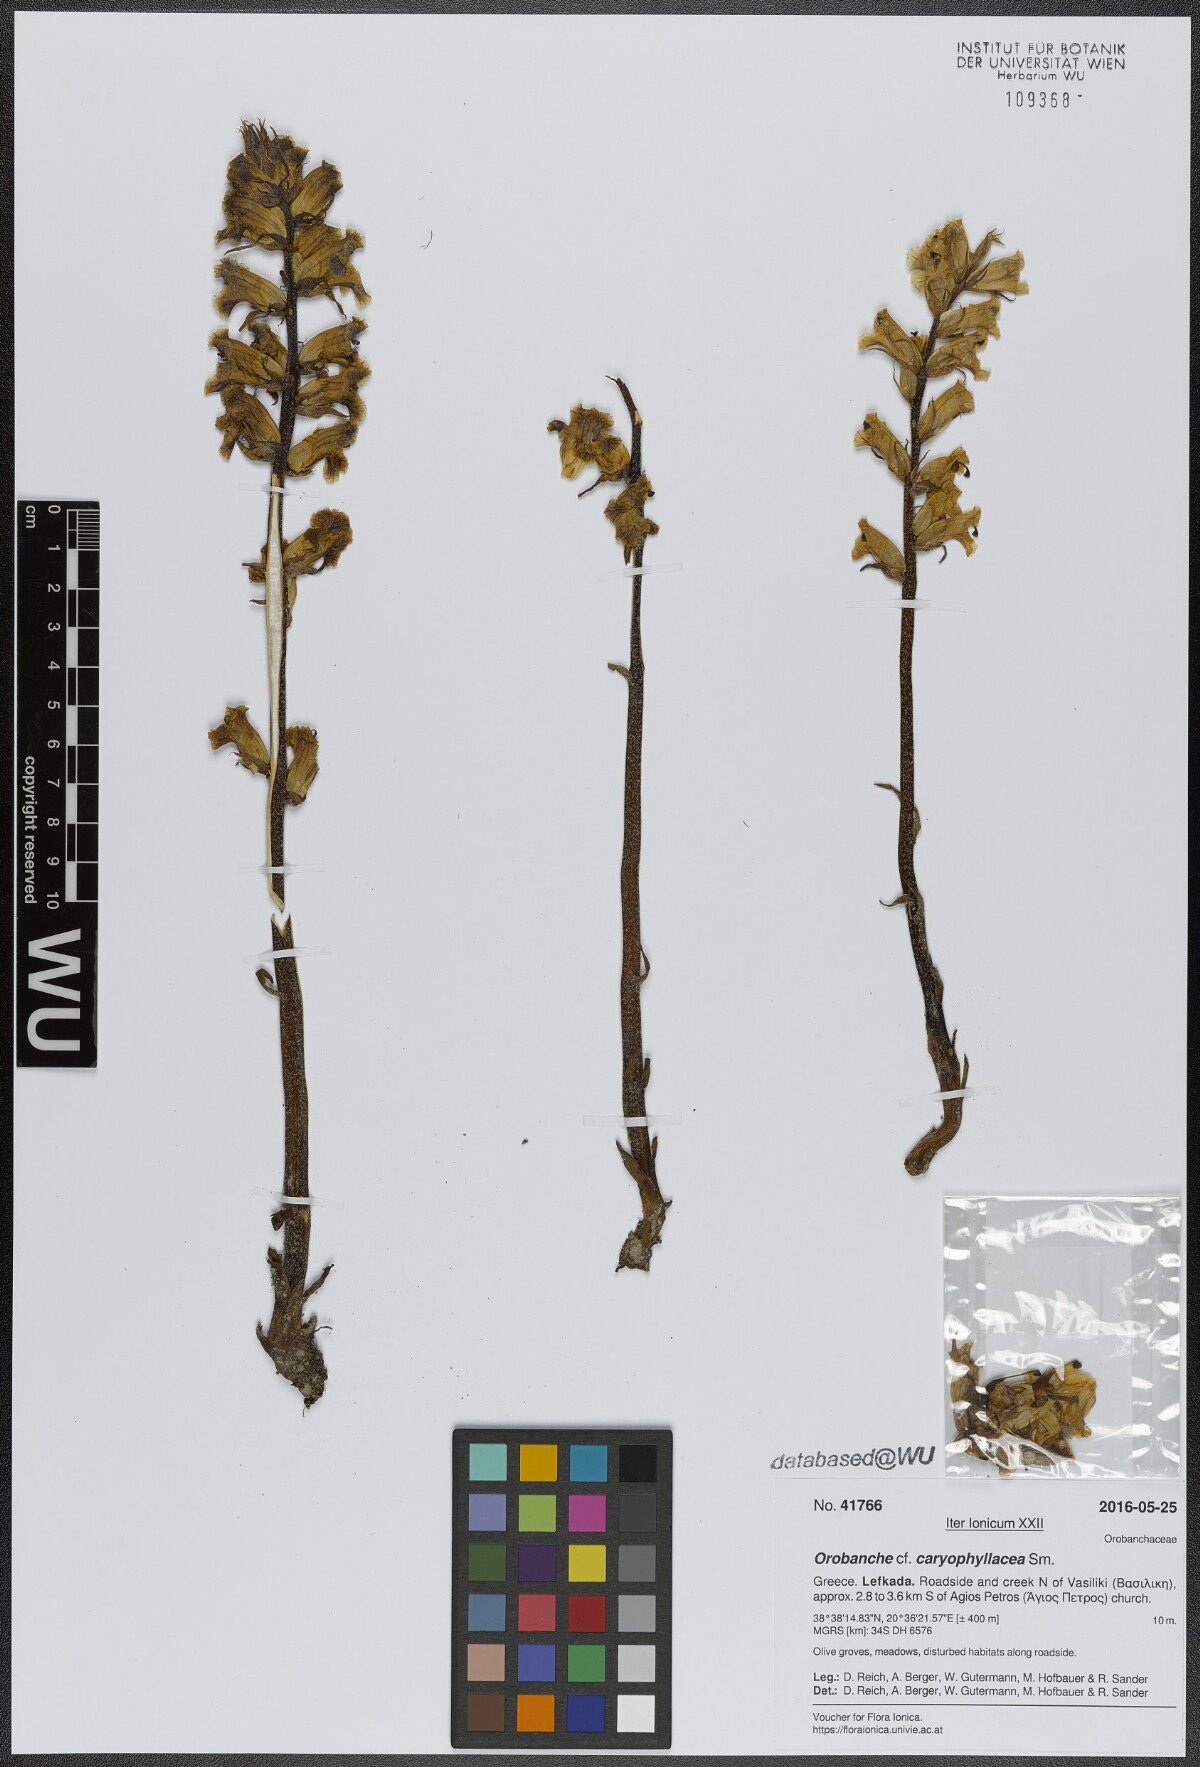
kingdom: Plantae
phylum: Tracheophyta
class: Magnoliopsida
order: Lamiales
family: Orobanchaceae
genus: Orobanche
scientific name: Orobanche crenata
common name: Bean broomrape
